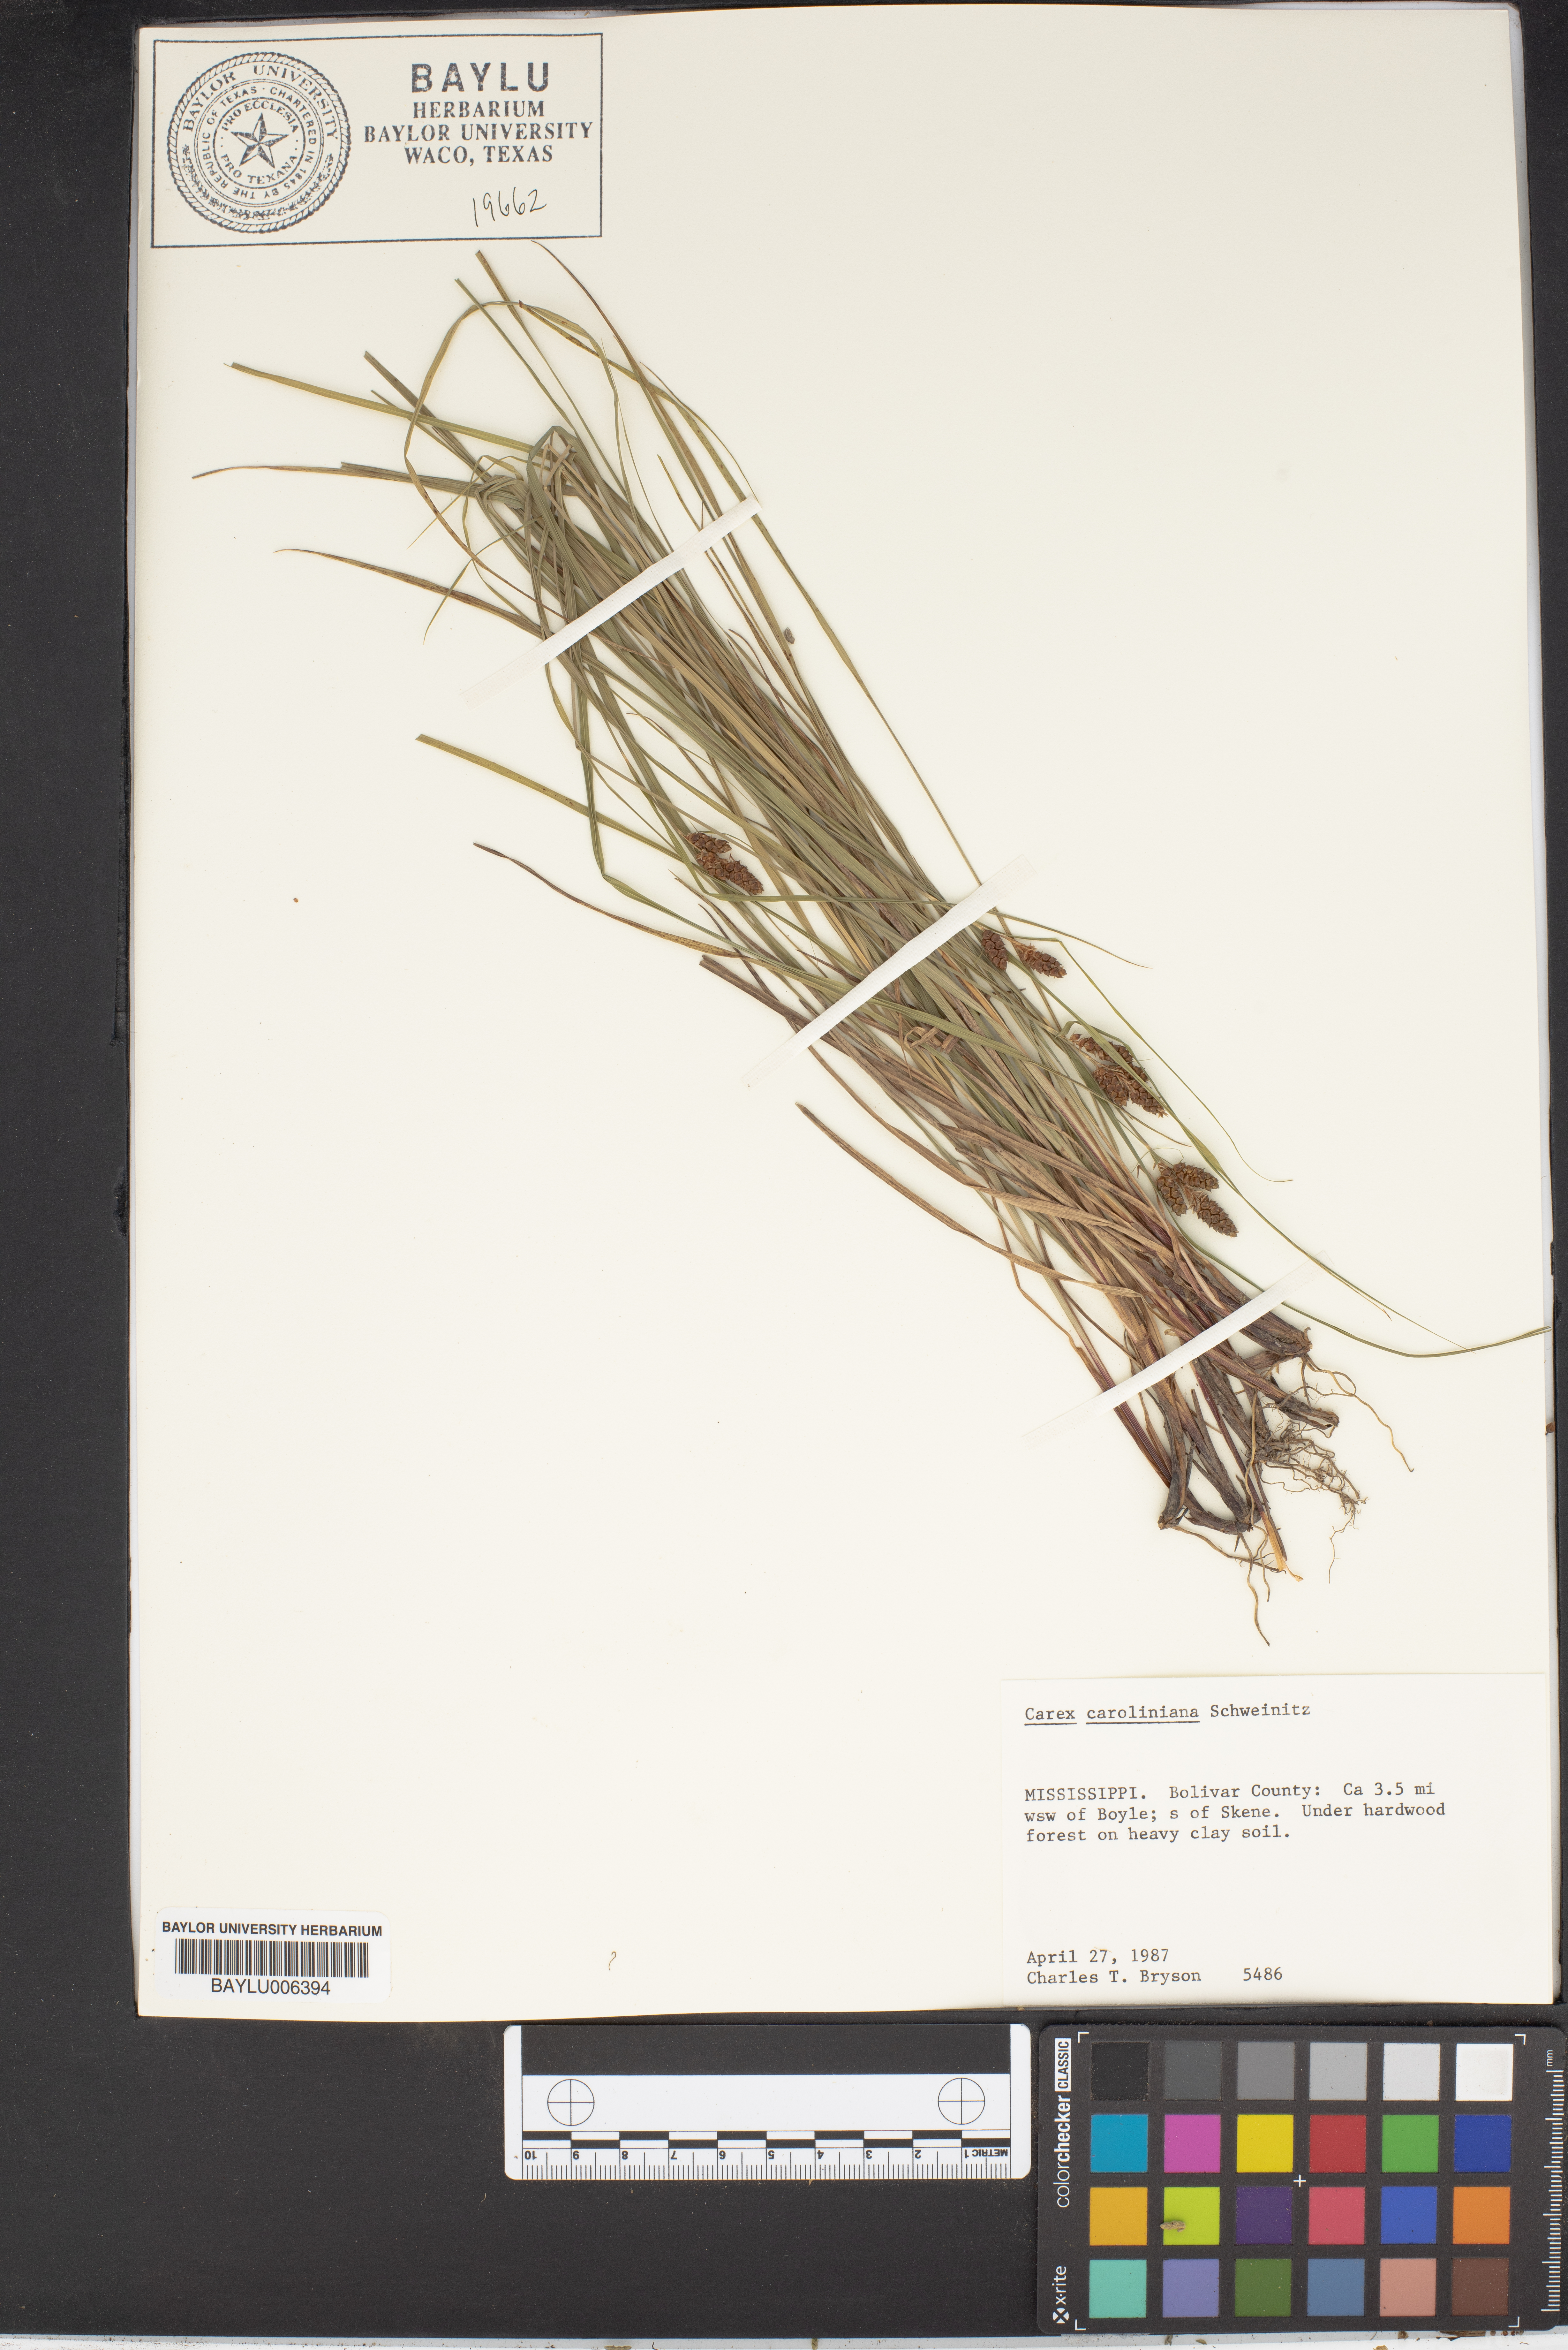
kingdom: Plantae
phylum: Tracheophyta
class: Liliopsida
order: Poales
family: Cyperaceae
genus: Carex
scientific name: Carex caroliniana
